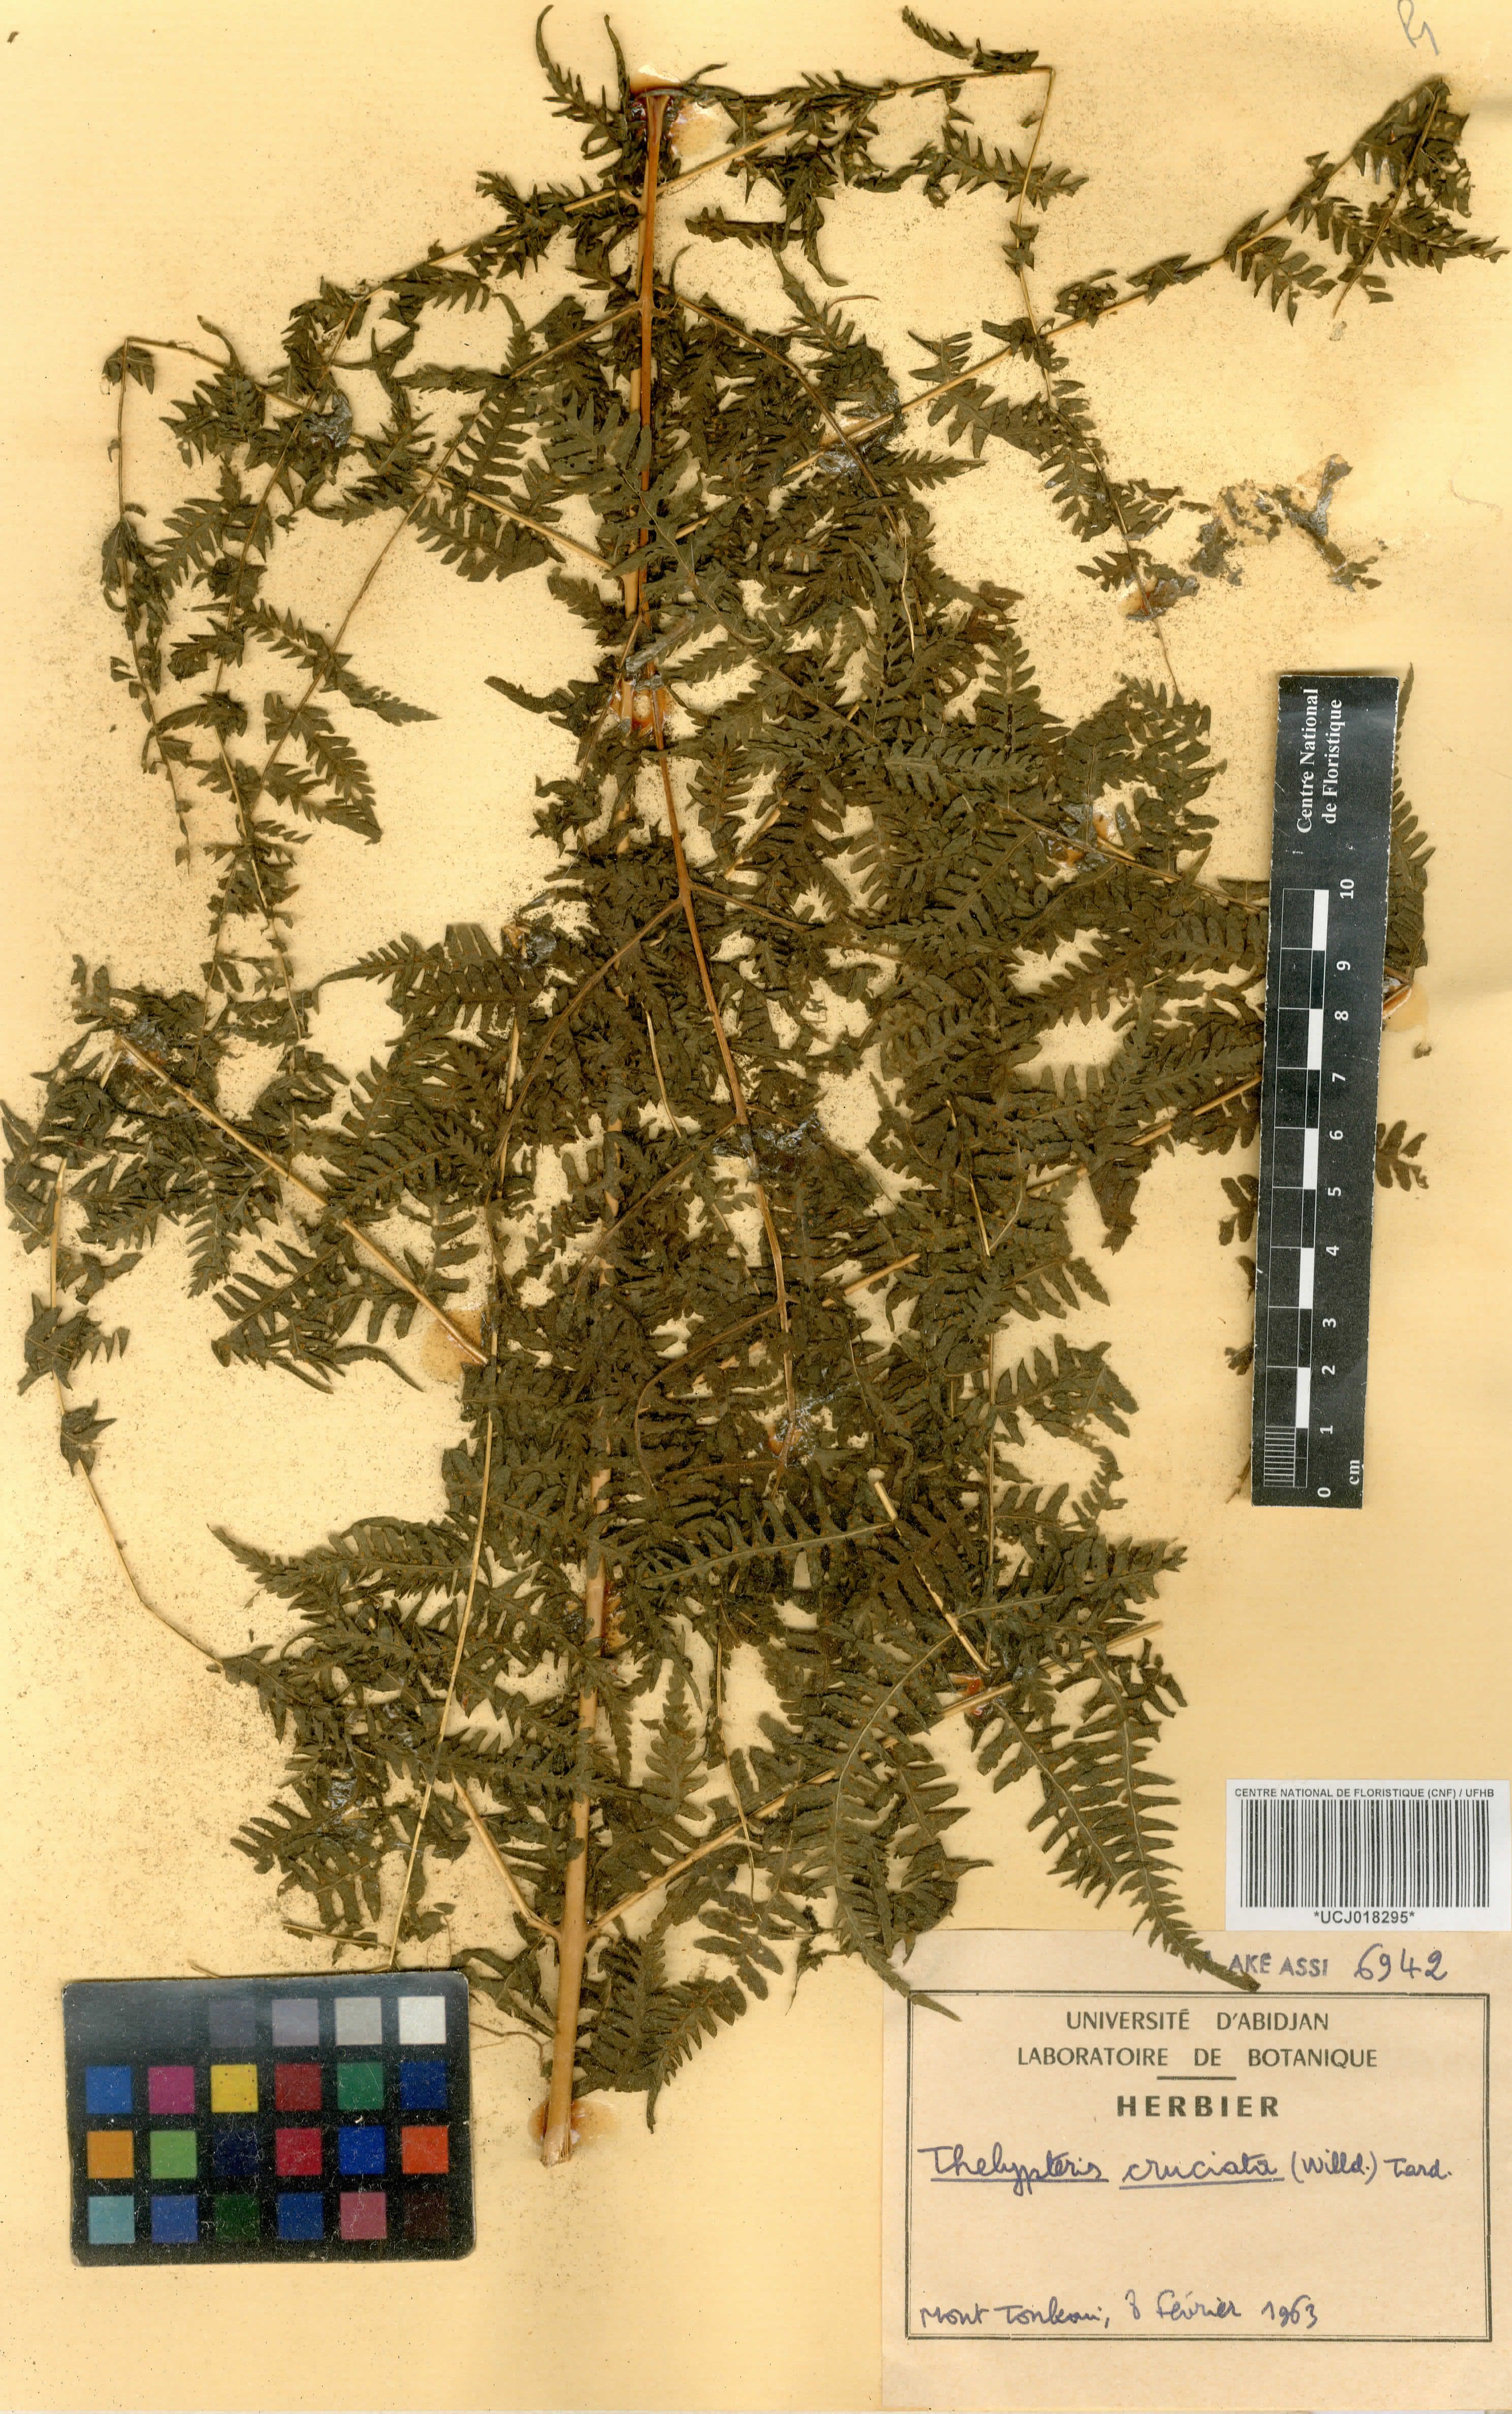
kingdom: Plantae
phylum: Tracheophyta
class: Polypodiopsida
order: Polypodiales
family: Thelypteridaceae
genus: Pseudophegopteris
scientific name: Pseudophegopteris cruciata
